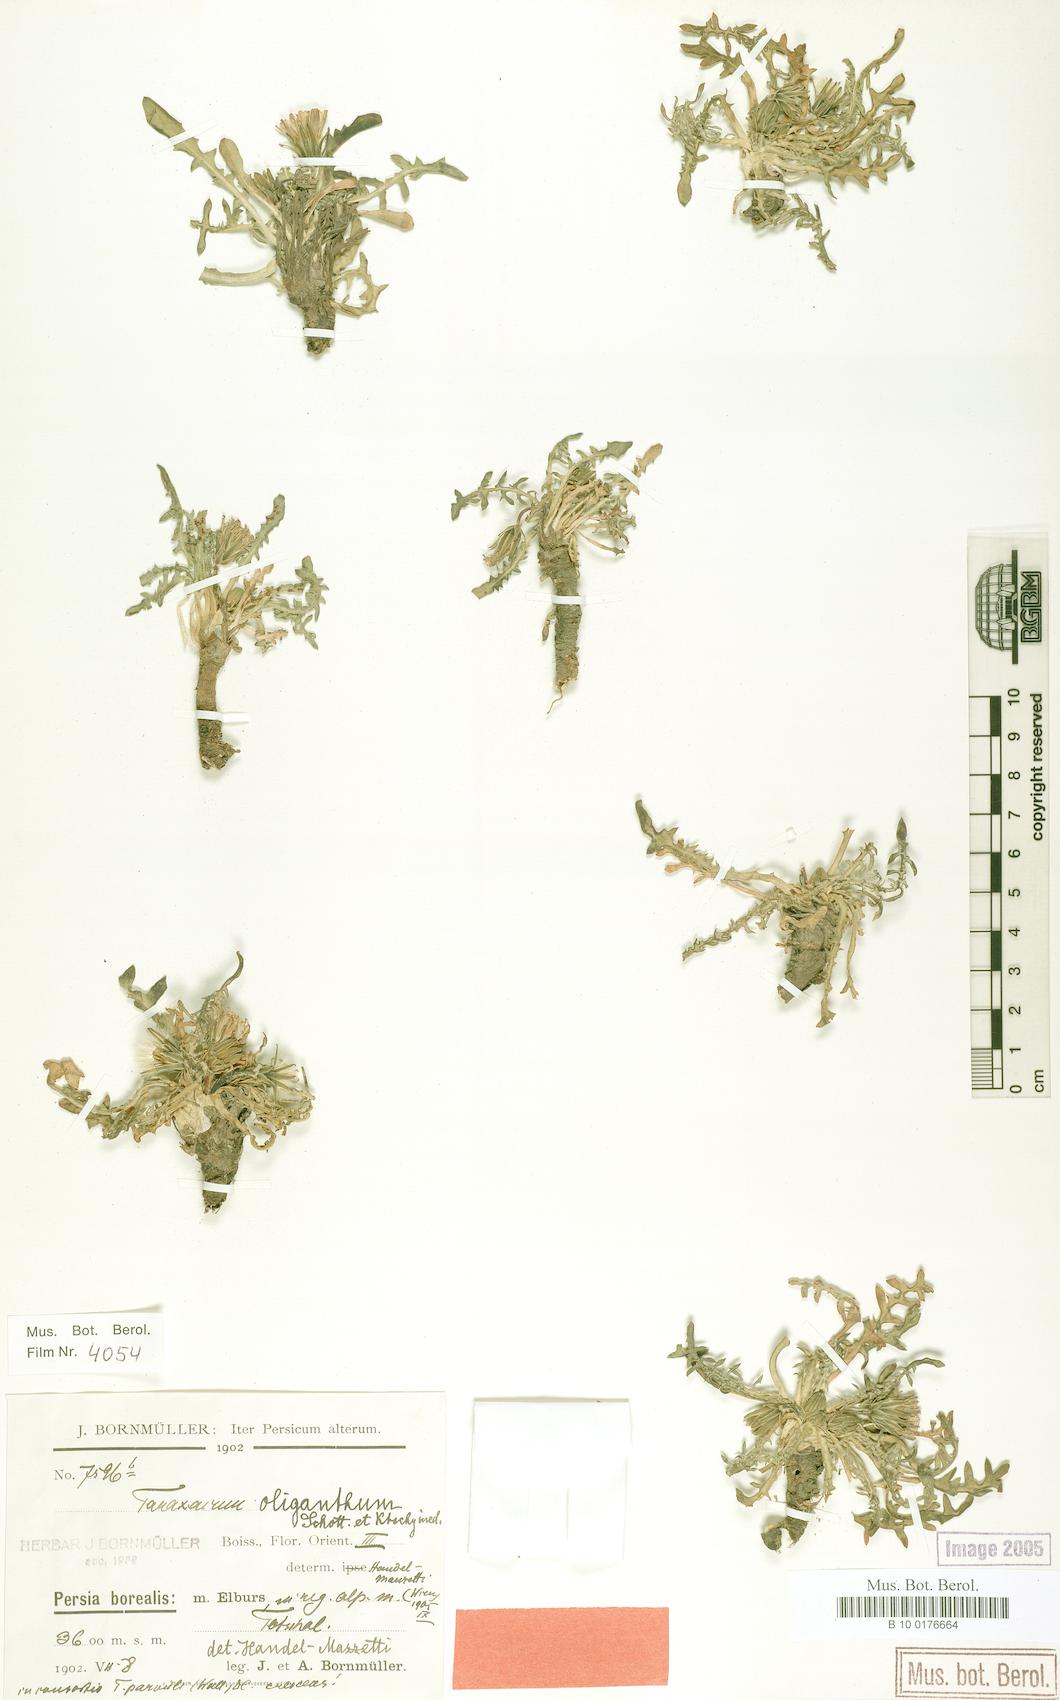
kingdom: Plantae
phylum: Tracheophyta
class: Magnoliopsida
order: Asterales
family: Asteraceae
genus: Taraxacum
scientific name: Taraxacum oliganthum
